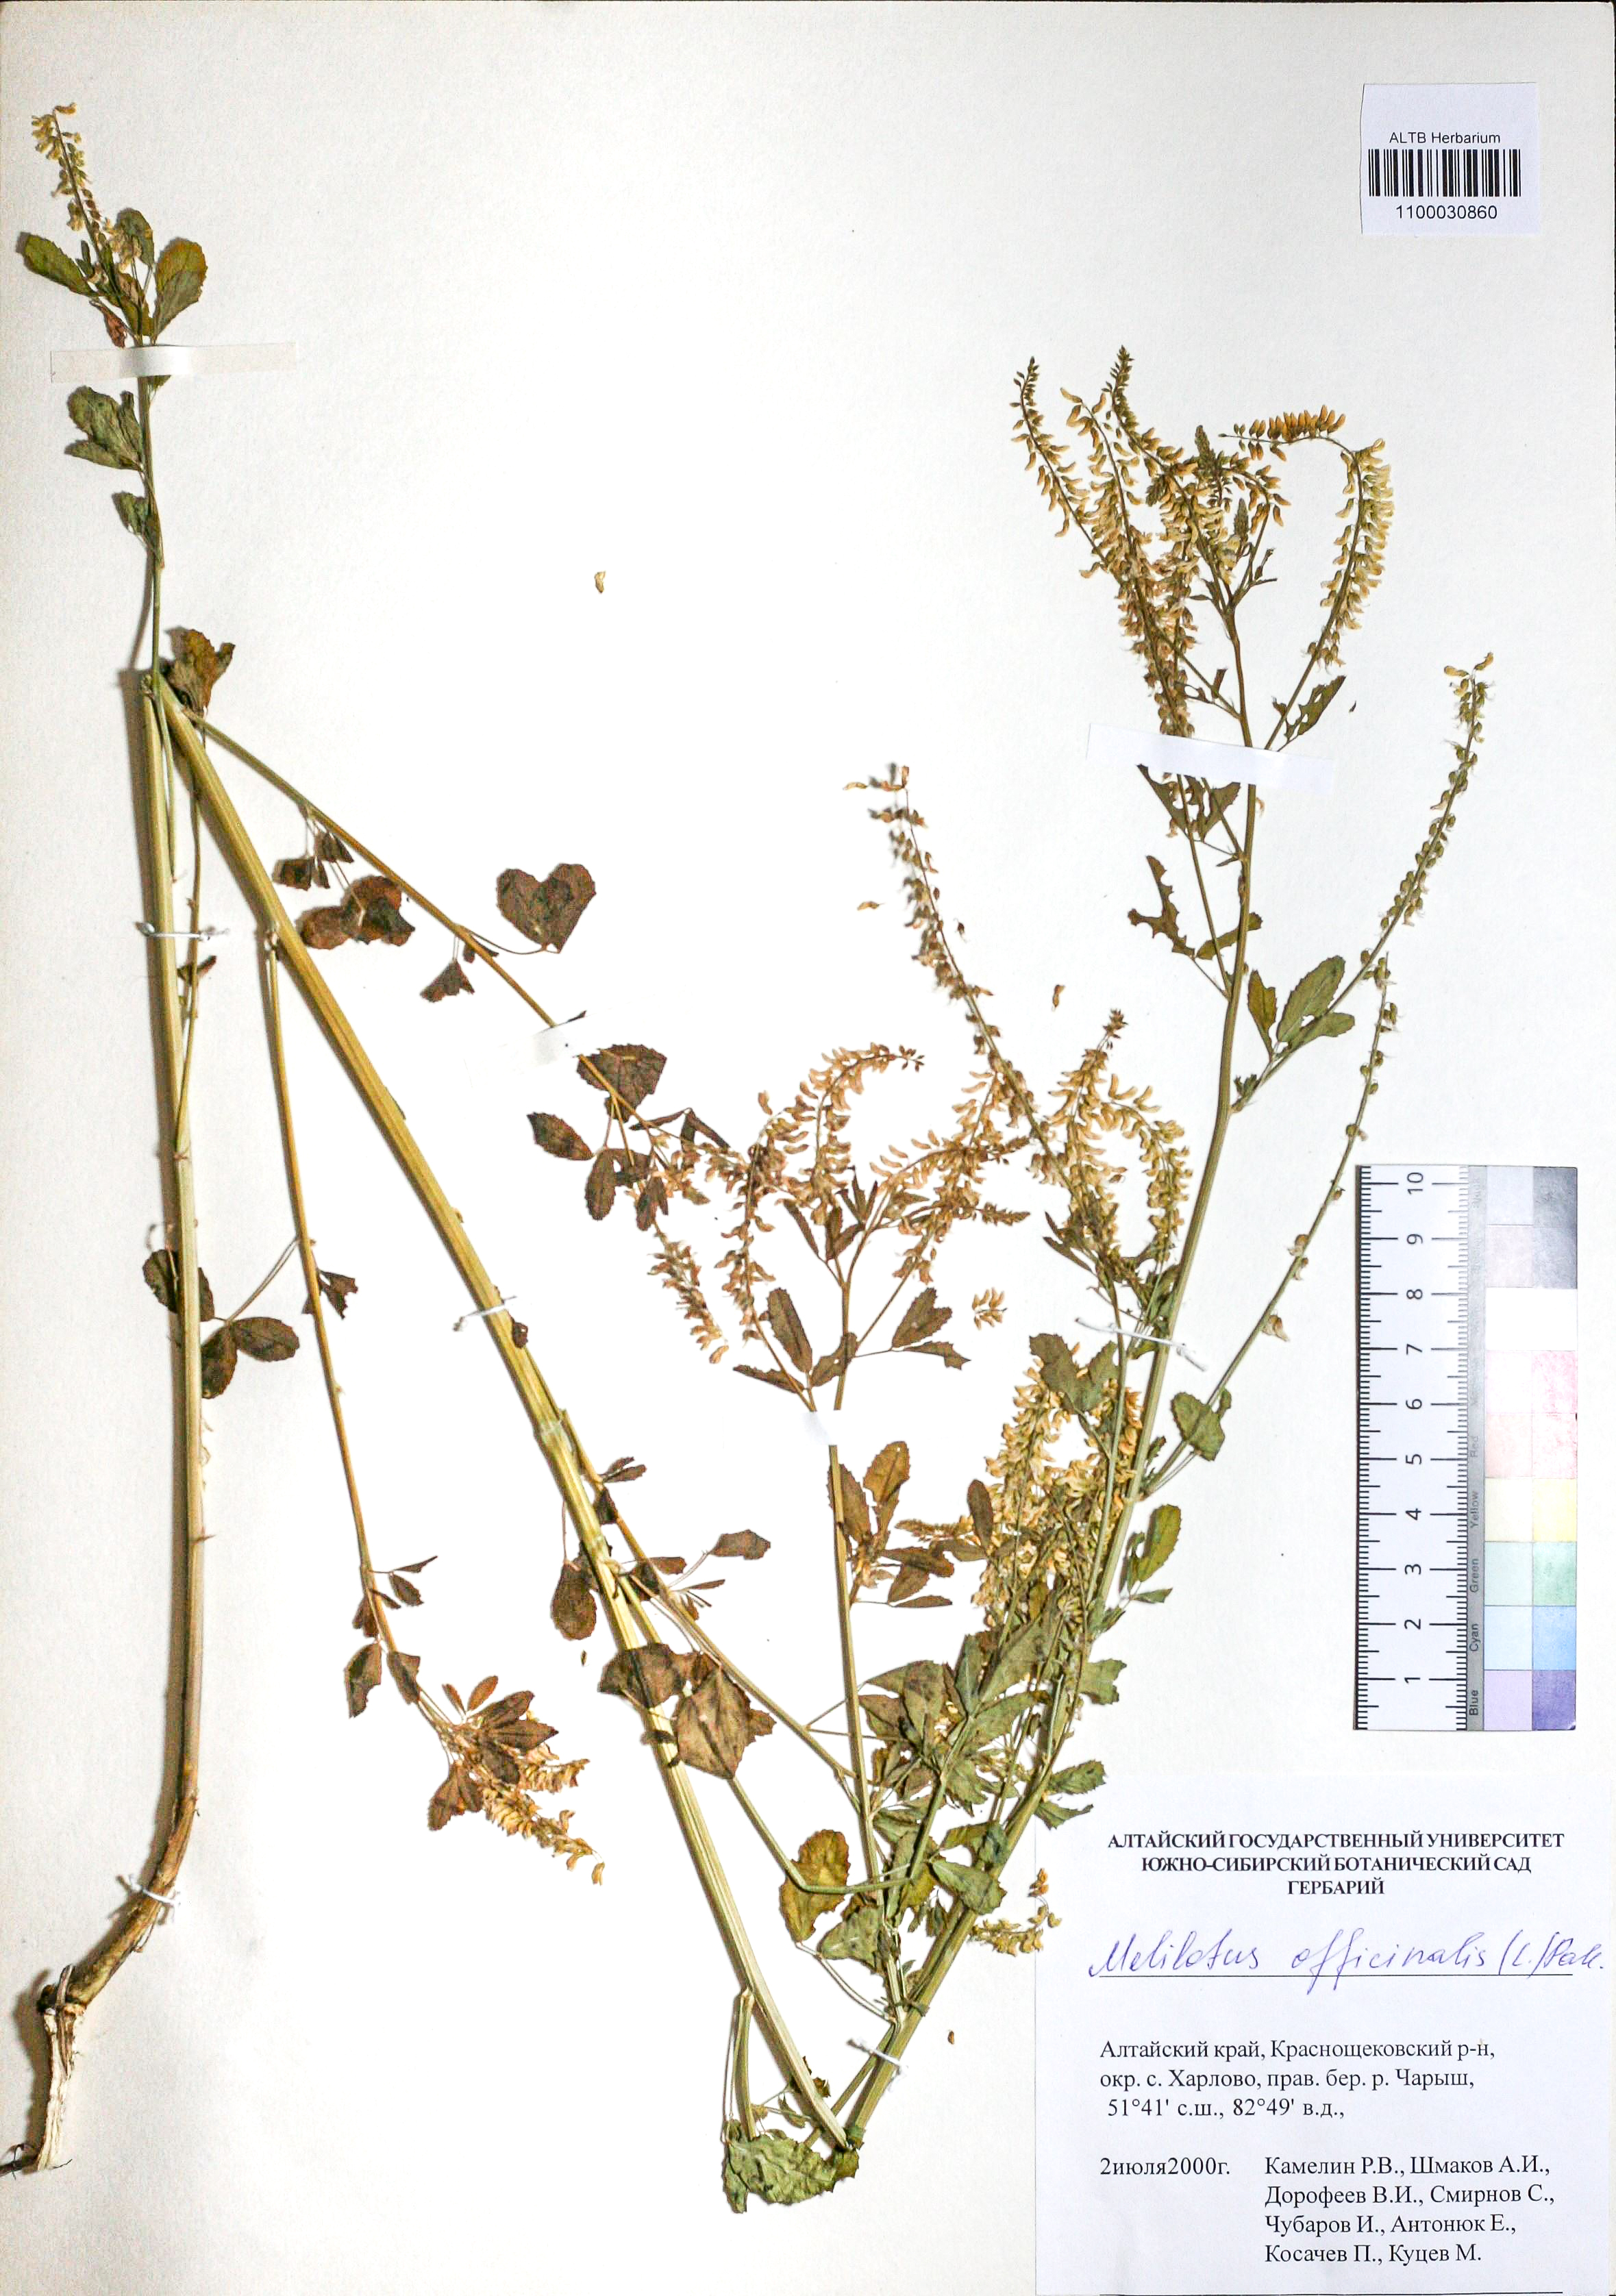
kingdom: Plantae
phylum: Tracheophyta
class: Magnoliopsida
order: Fabales
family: Fabaceae
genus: Melilotus
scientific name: Melilotus officinalis
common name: Sweetclover
